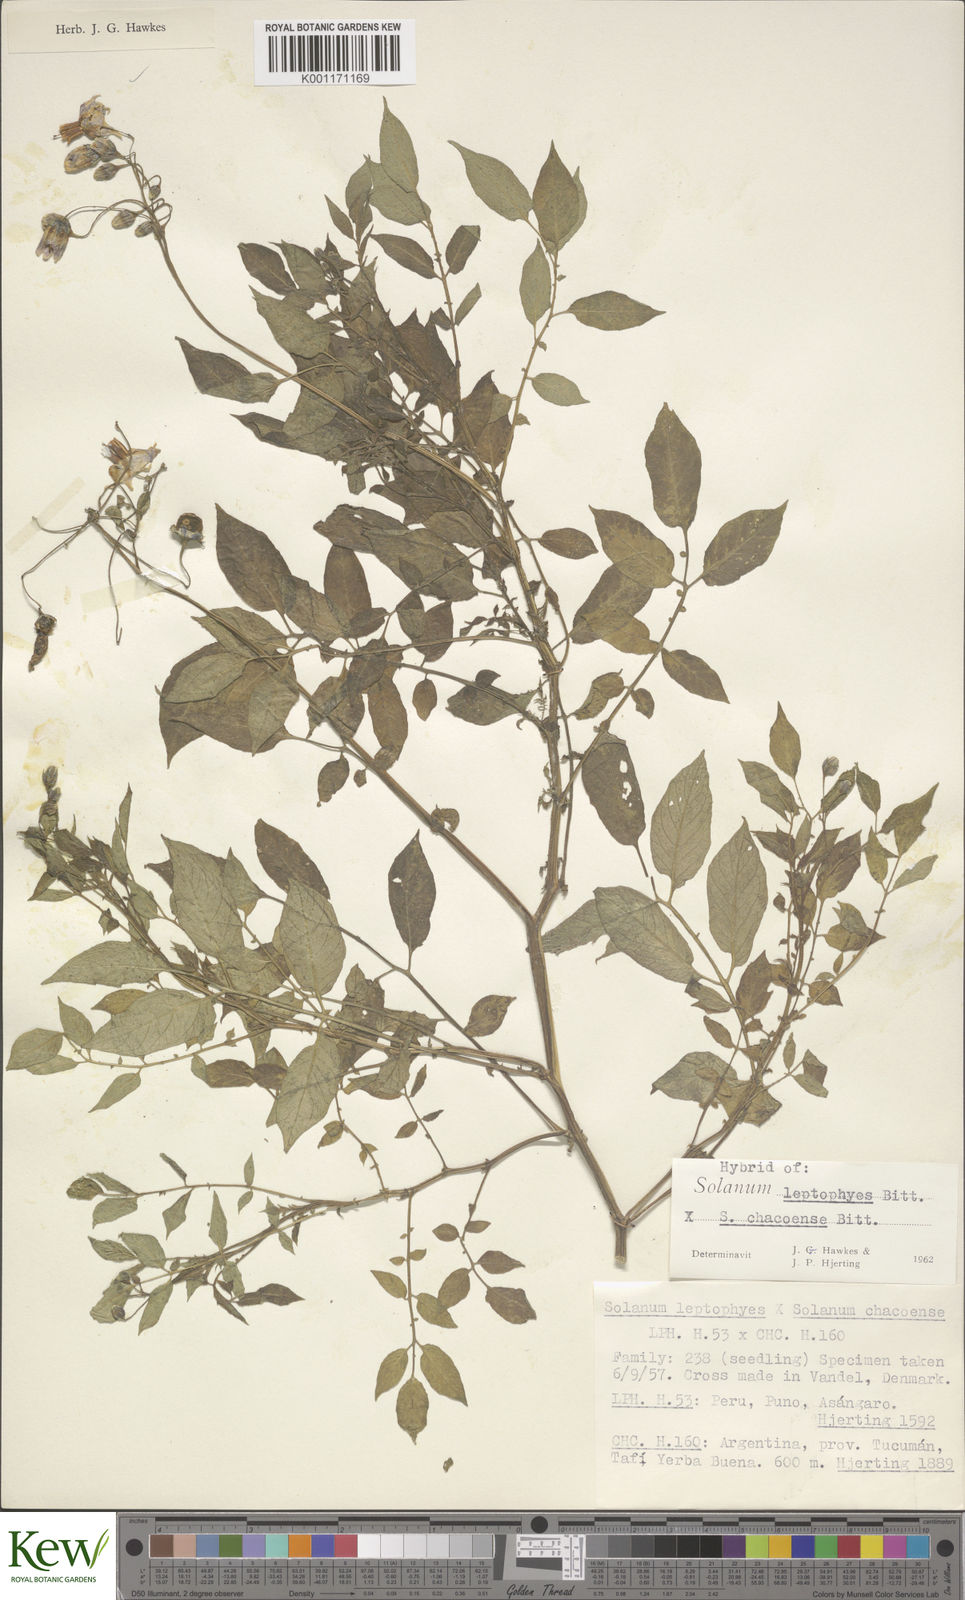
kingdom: Plantae
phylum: Tracheophyta
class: Magnoliopsida
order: Solanales
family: Solanaceae
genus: Solanum
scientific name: Solanum chacoense
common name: Chaco potato
